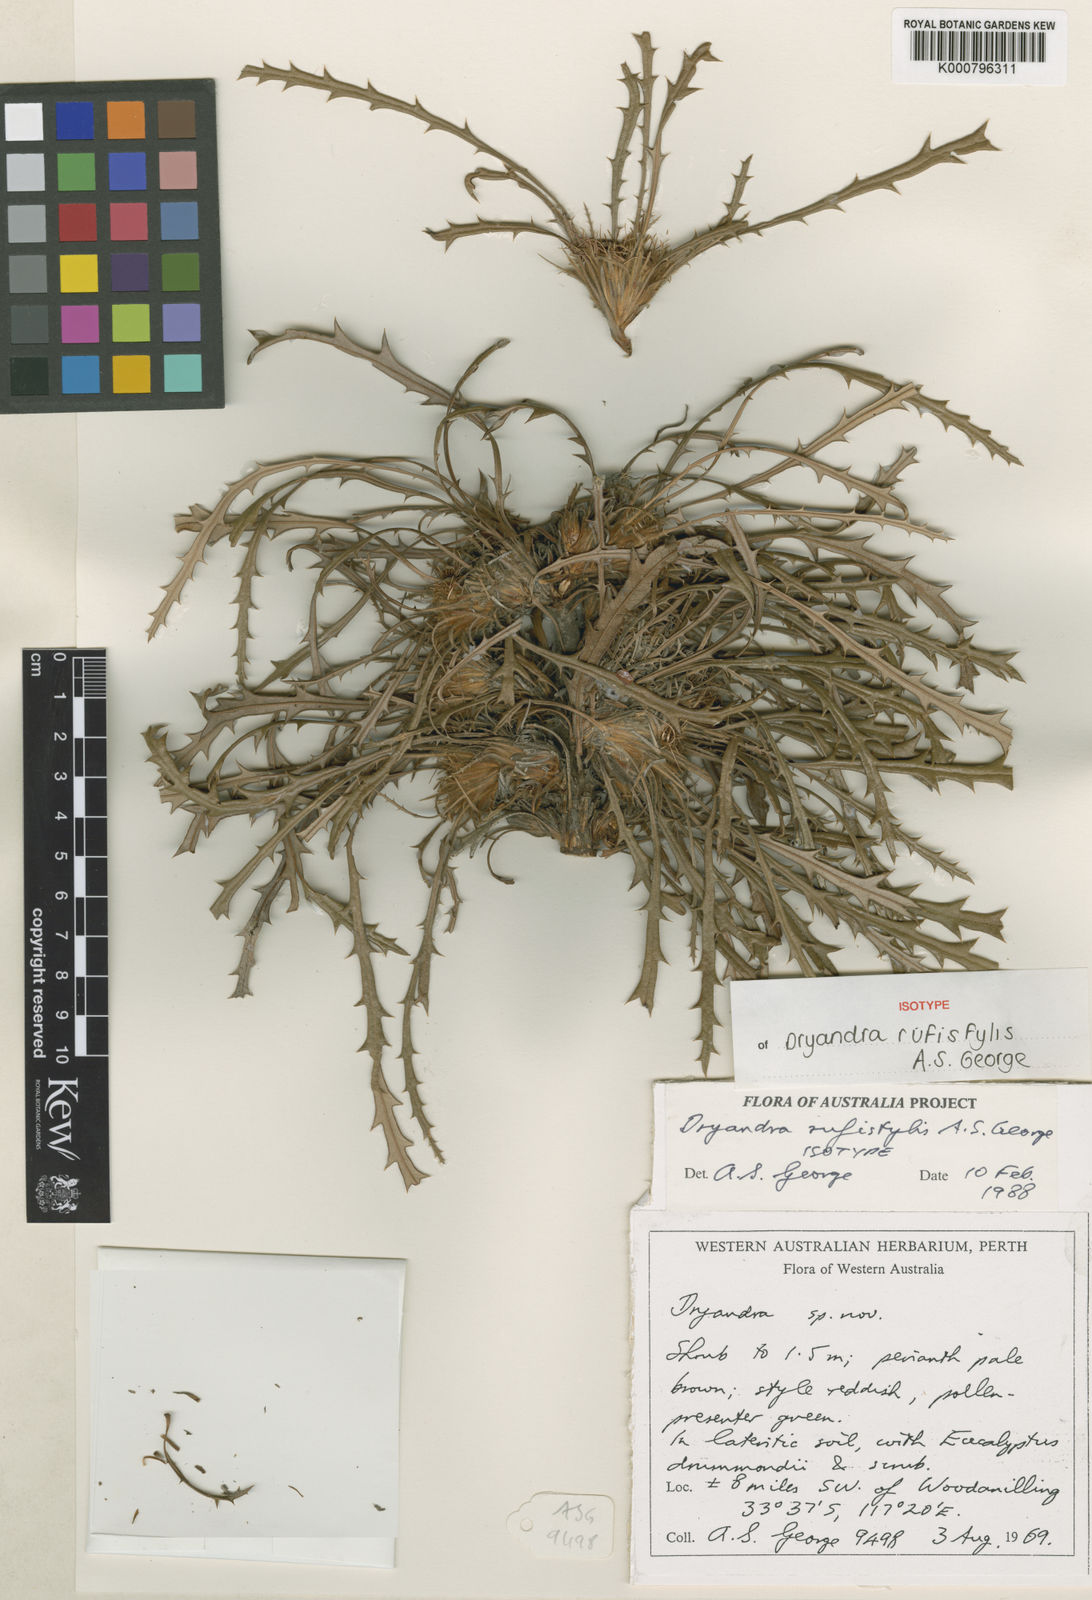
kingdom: Plantae
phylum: Tracheophyta
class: Magnoliopsida
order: Proteales
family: Proteaceae
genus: Banksia
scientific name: Banksia rufistylis
